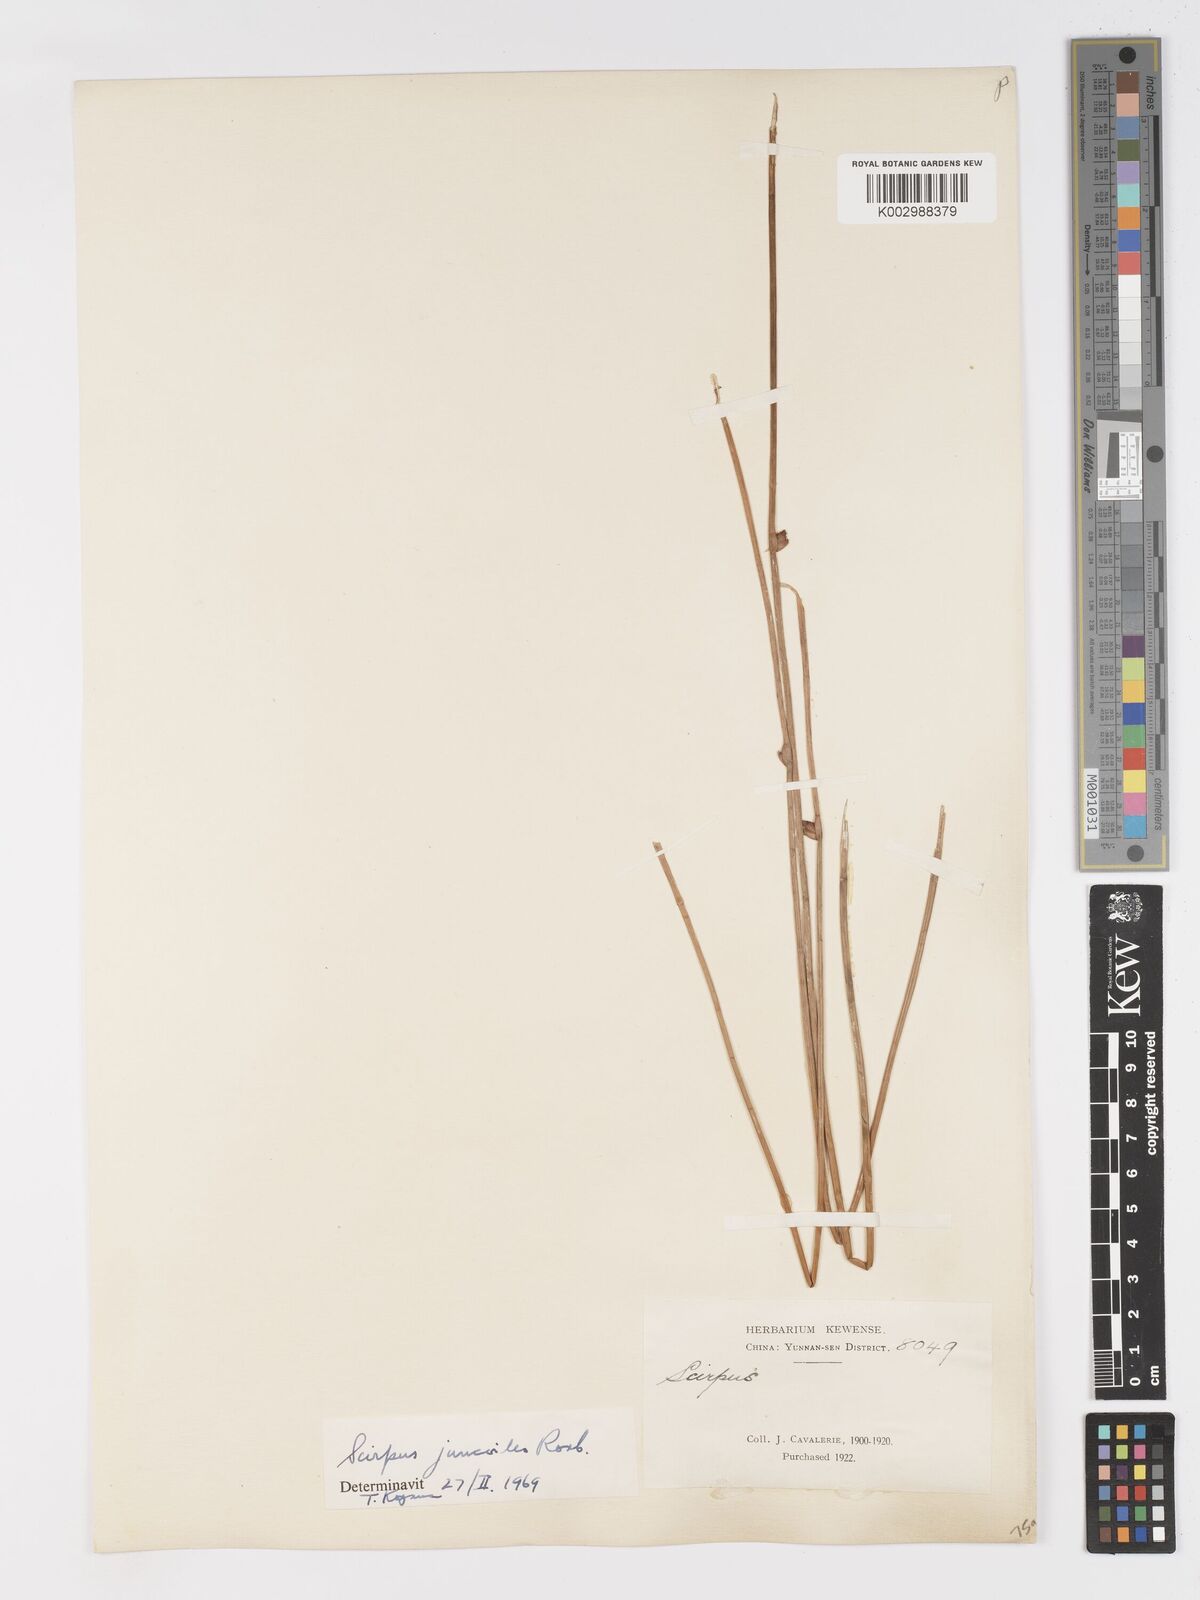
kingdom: Plantae
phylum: Tracheophyta
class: Liliopsida
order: Poales
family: Cyperaceae
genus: Schoenoplectiella
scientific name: Schoenoplectiella juncoides
